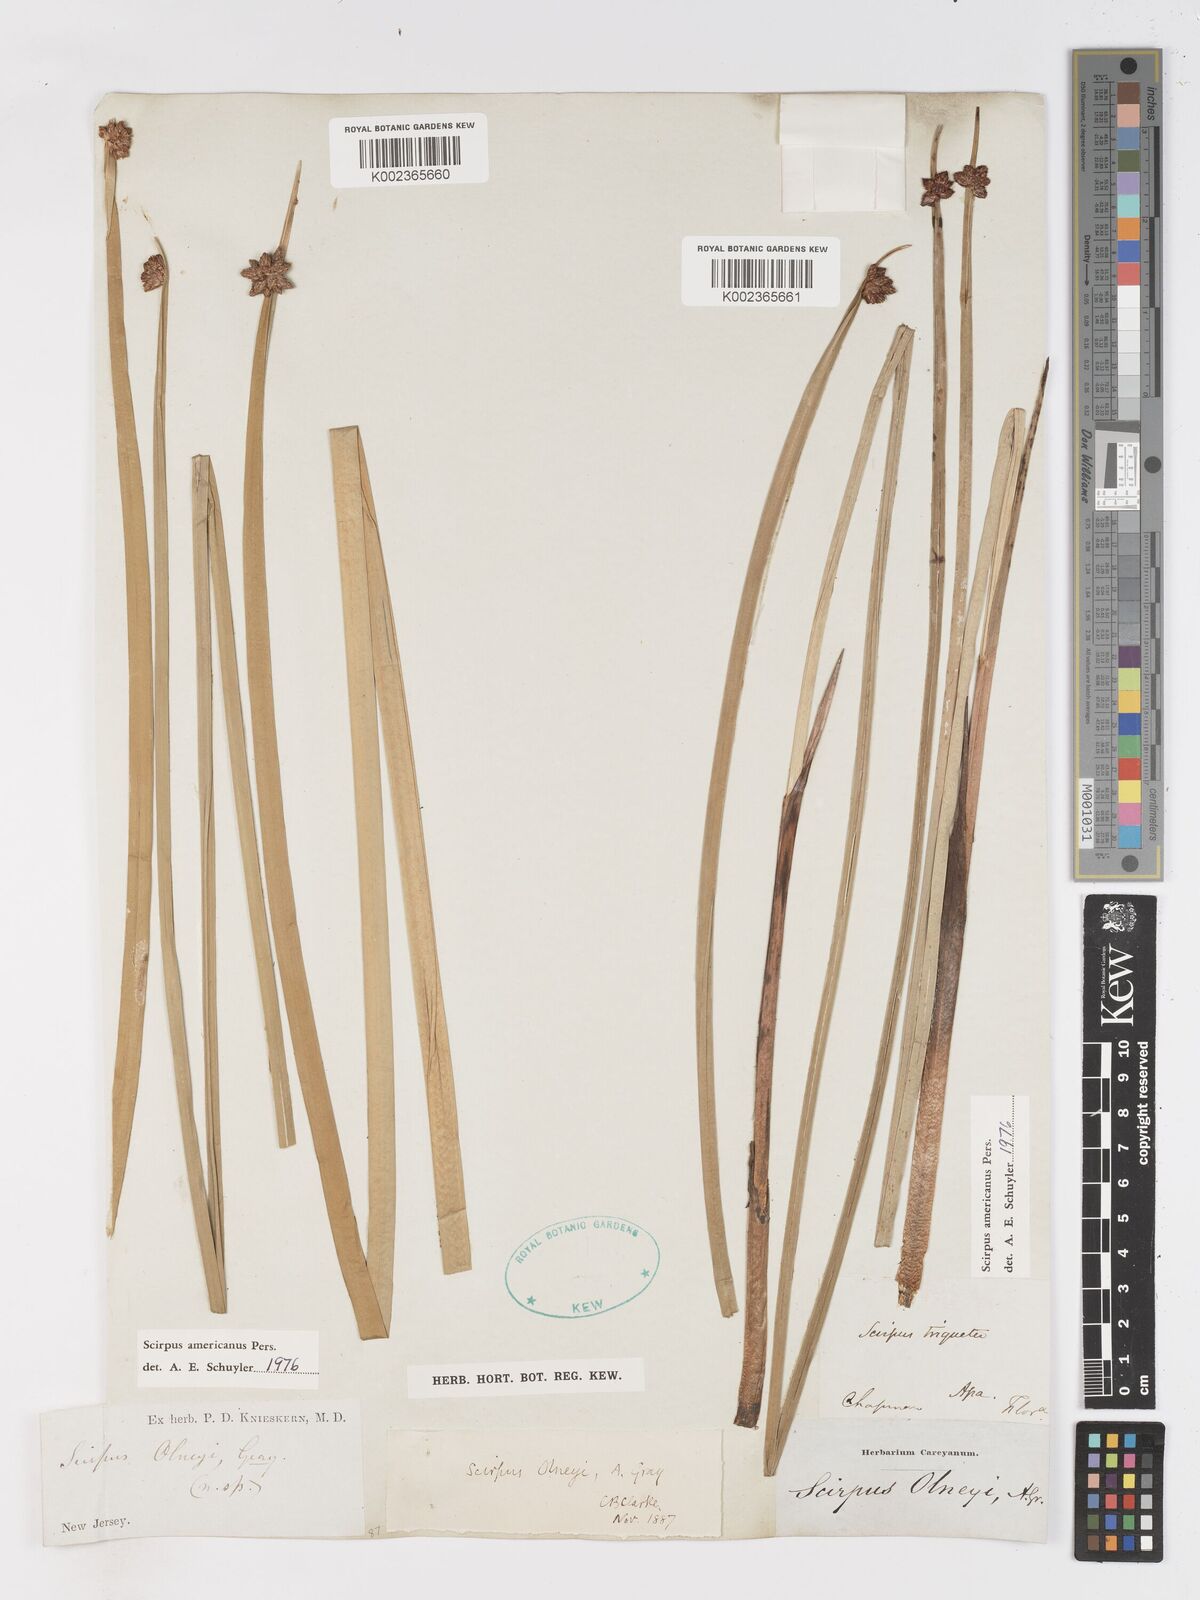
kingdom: Plantae
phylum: Tracheophyta
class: Liliopsida
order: Poales
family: Cyperaceae
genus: Schoenoplectus
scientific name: Schoenoplectus americanus
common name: American three-square bulrush
